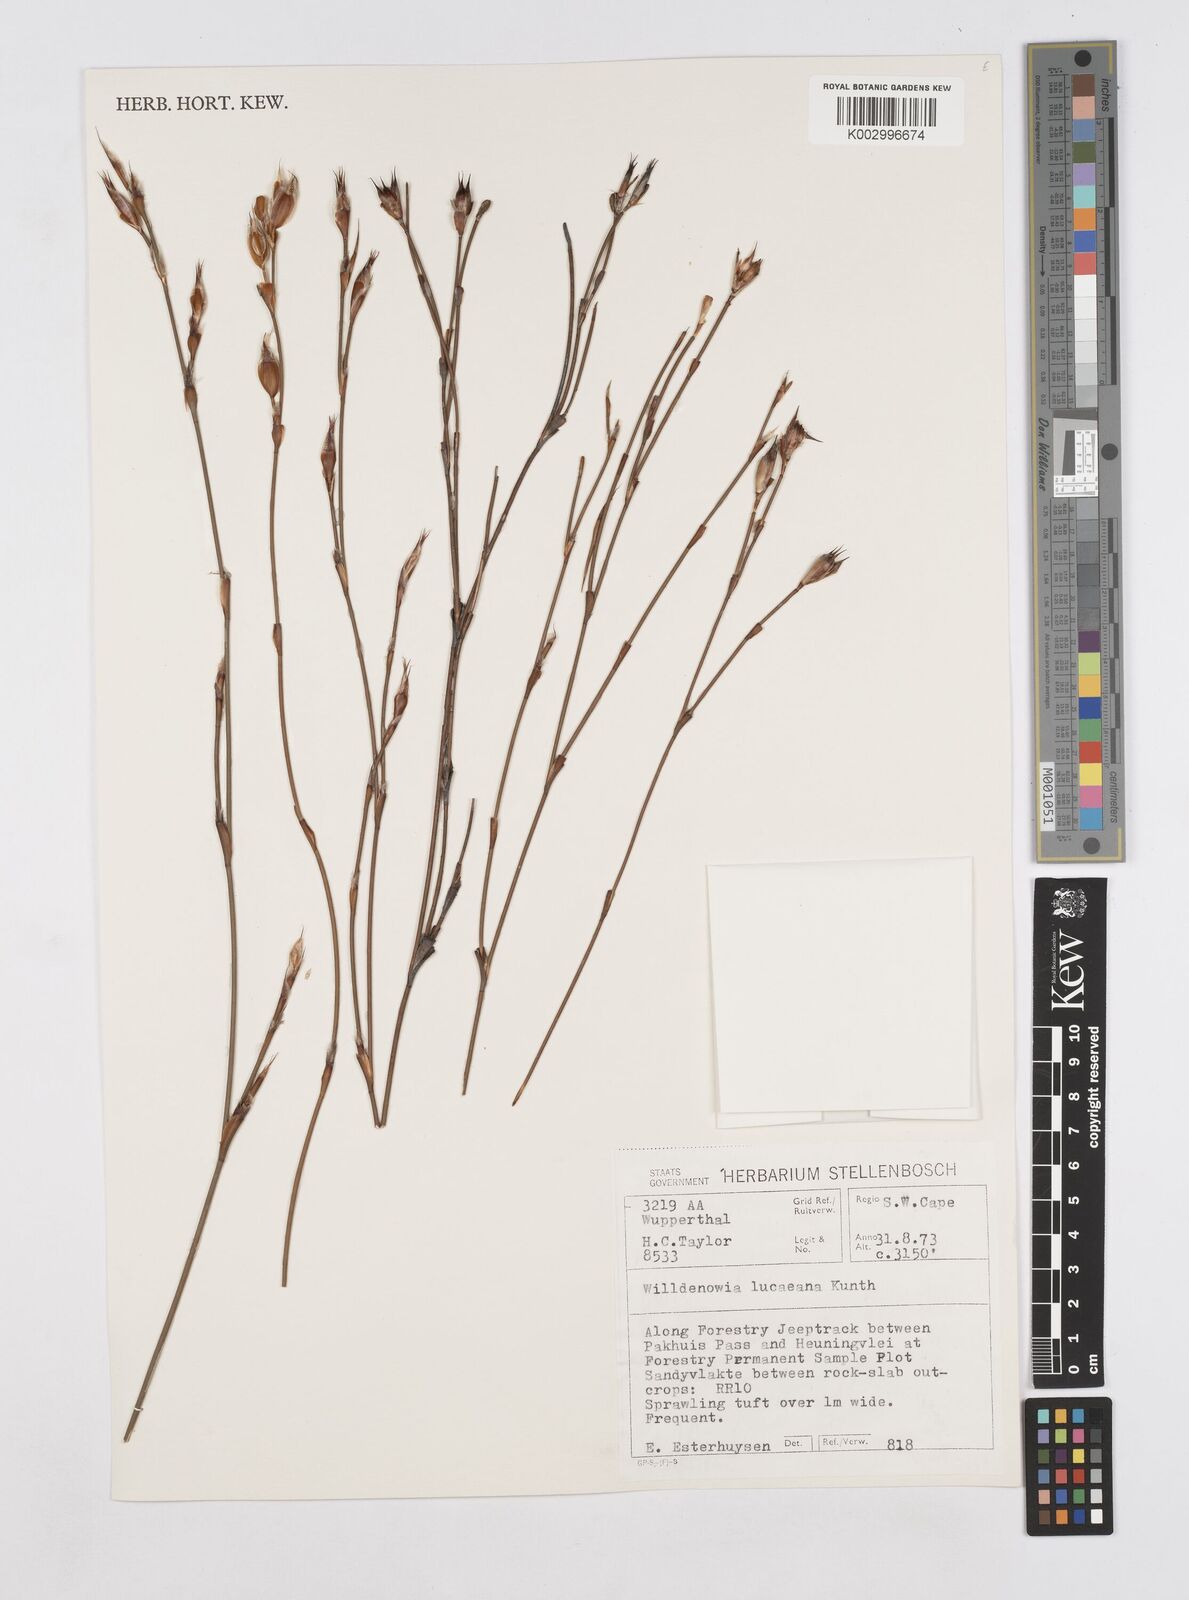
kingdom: Plantae
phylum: Tracheophyta
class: Liliopsida
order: Poales
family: Restionaceae
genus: Willdenowia
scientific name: Willdenowia glomerata
